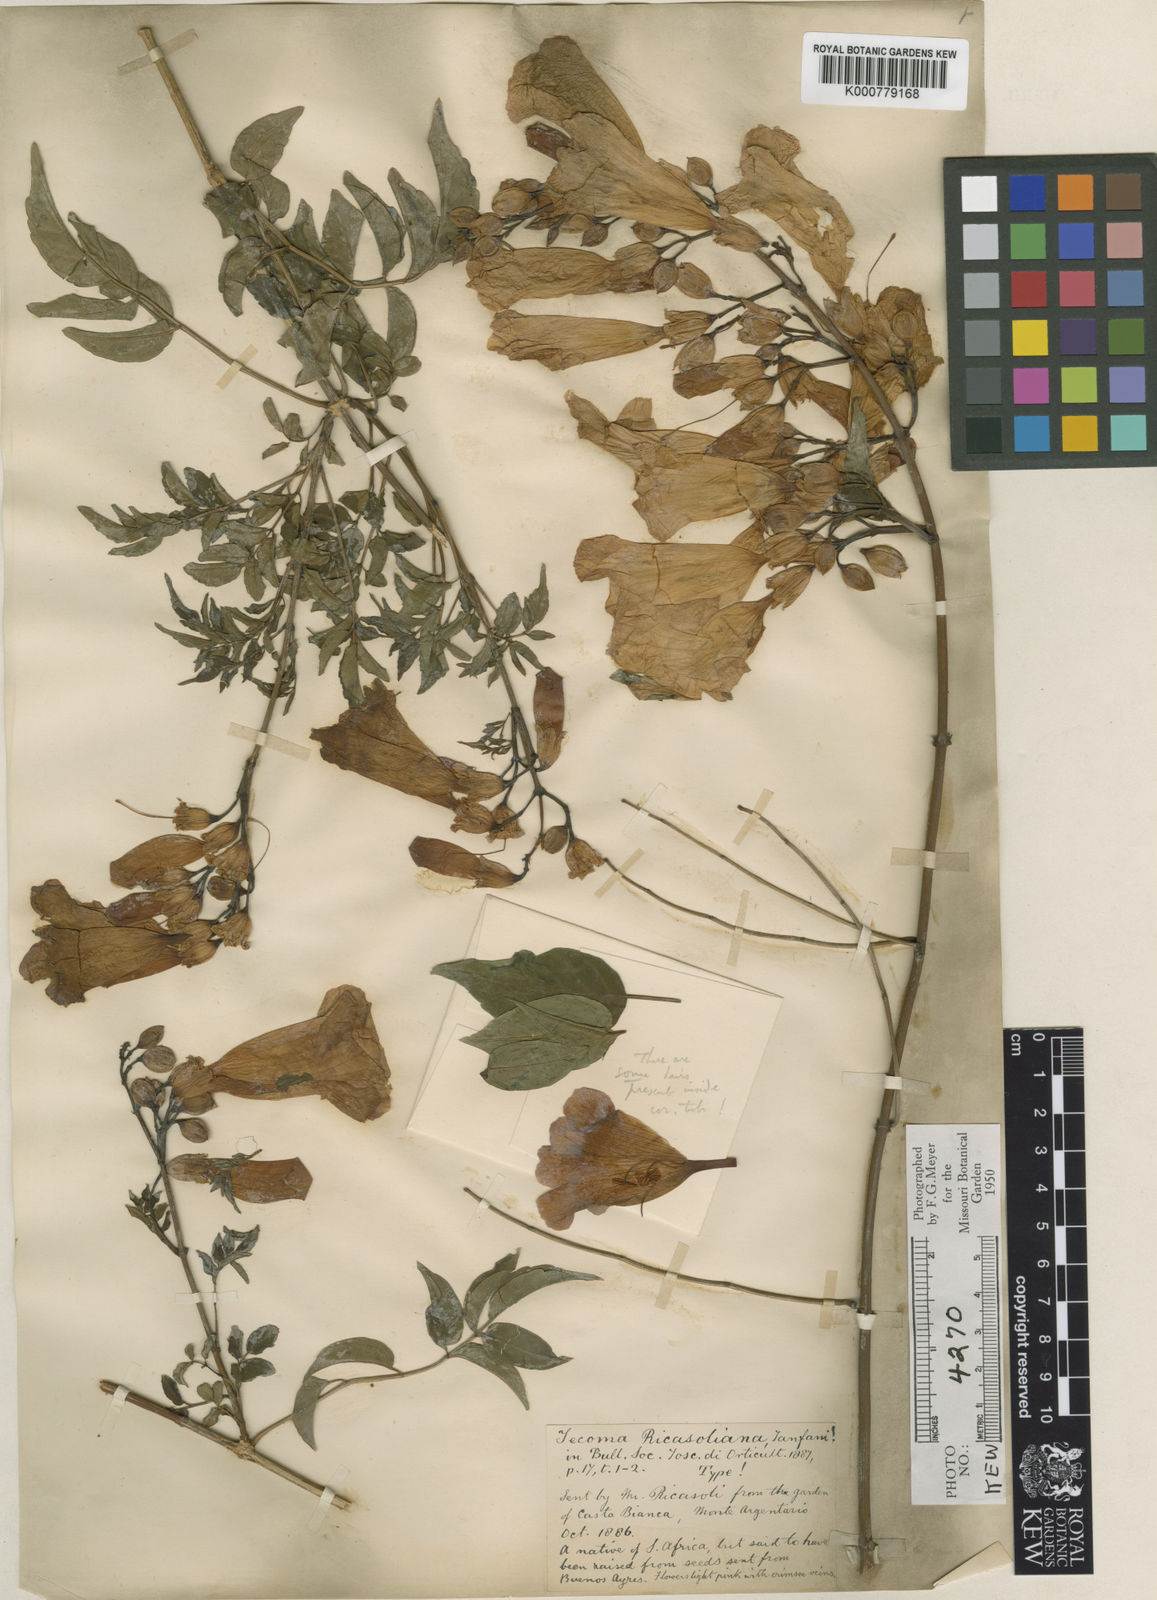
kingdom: Plantae
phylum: Tracheophyta
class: Magnoliopsida
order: Lamiales
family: Bignoniaceae
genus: Podranea
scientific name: Podranea ricasoliana
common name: Zimbabwe creeper
